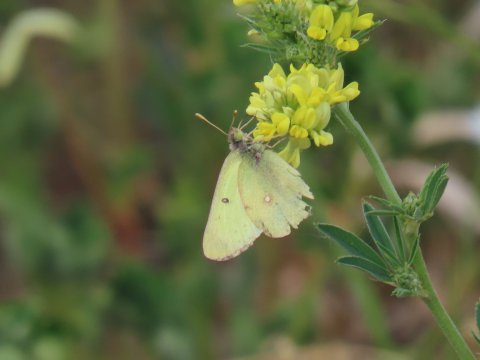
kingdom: Animalia
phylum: Arthropoda
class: Insecta
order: Lepidoptera
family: Pieridae
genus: Colias
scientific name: Colias interior
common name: Pink-edged Sulphur
